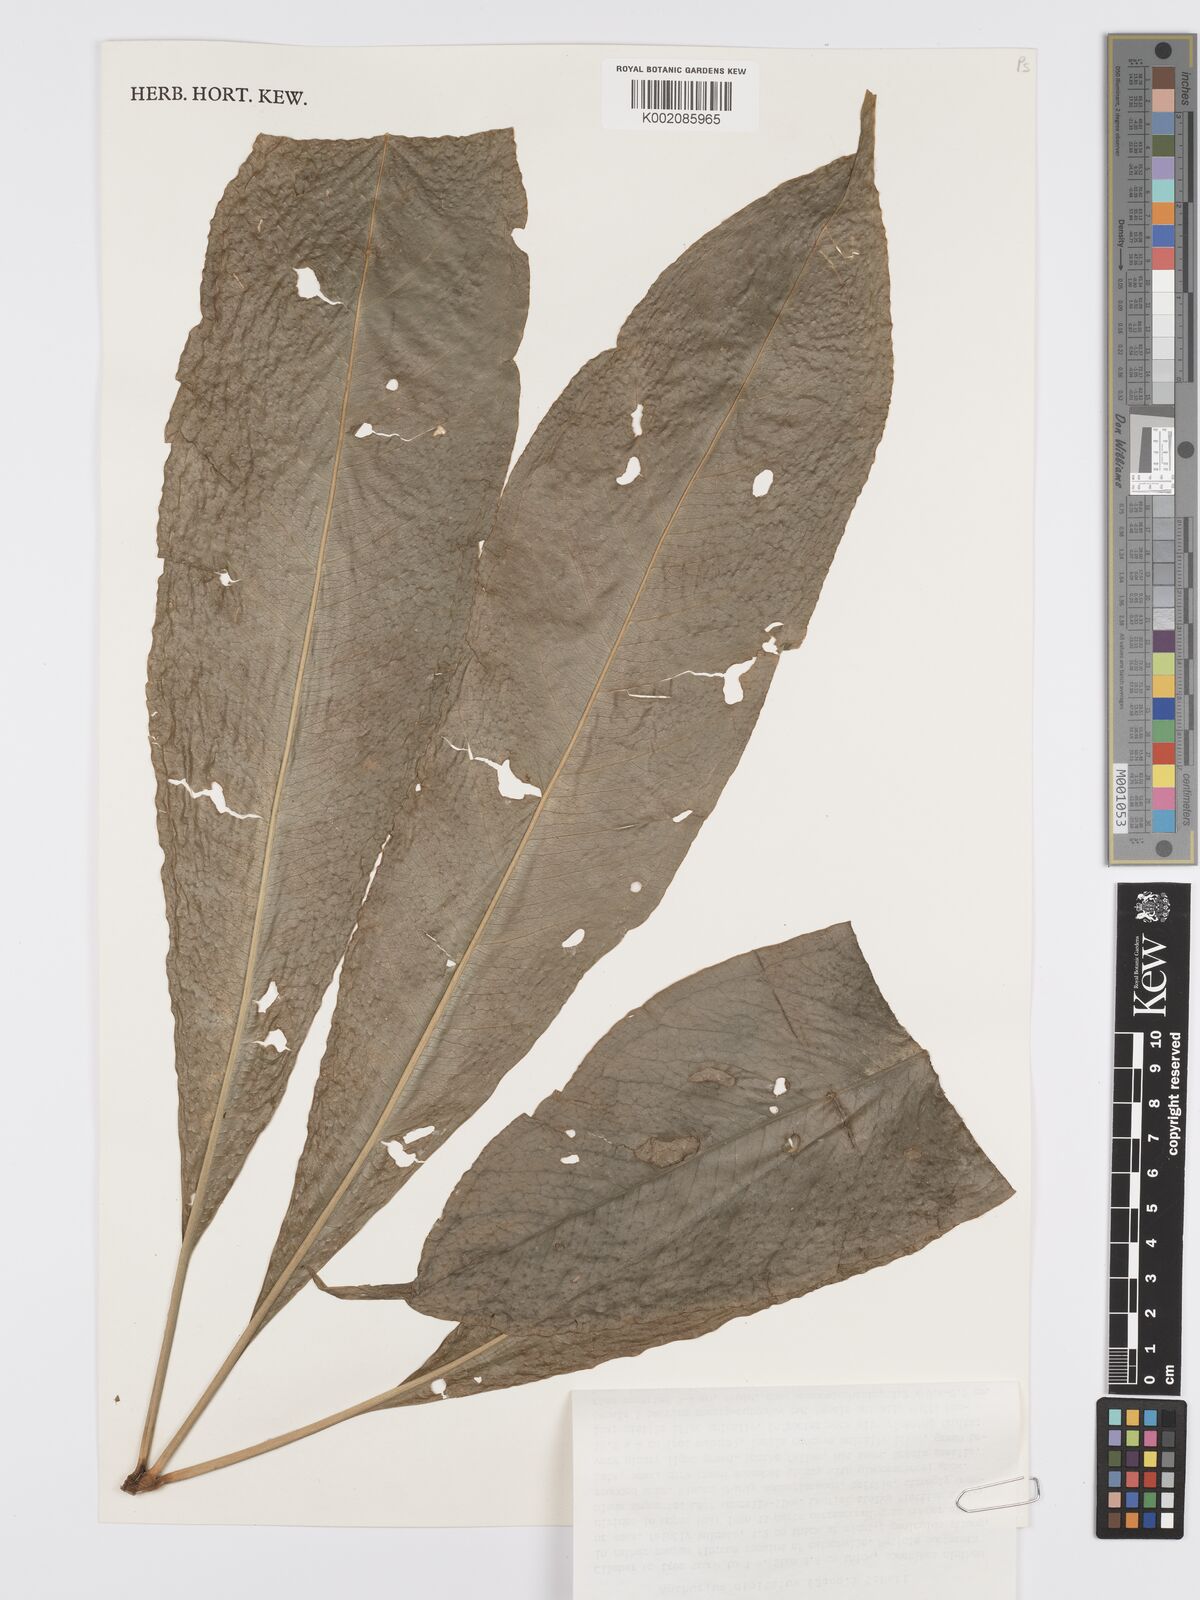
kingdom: Plantae
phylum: Tracheophyta
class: Liliopsida
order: Alismatales
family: Araceae
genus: Anthurium
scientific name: Anthurium digitatum
